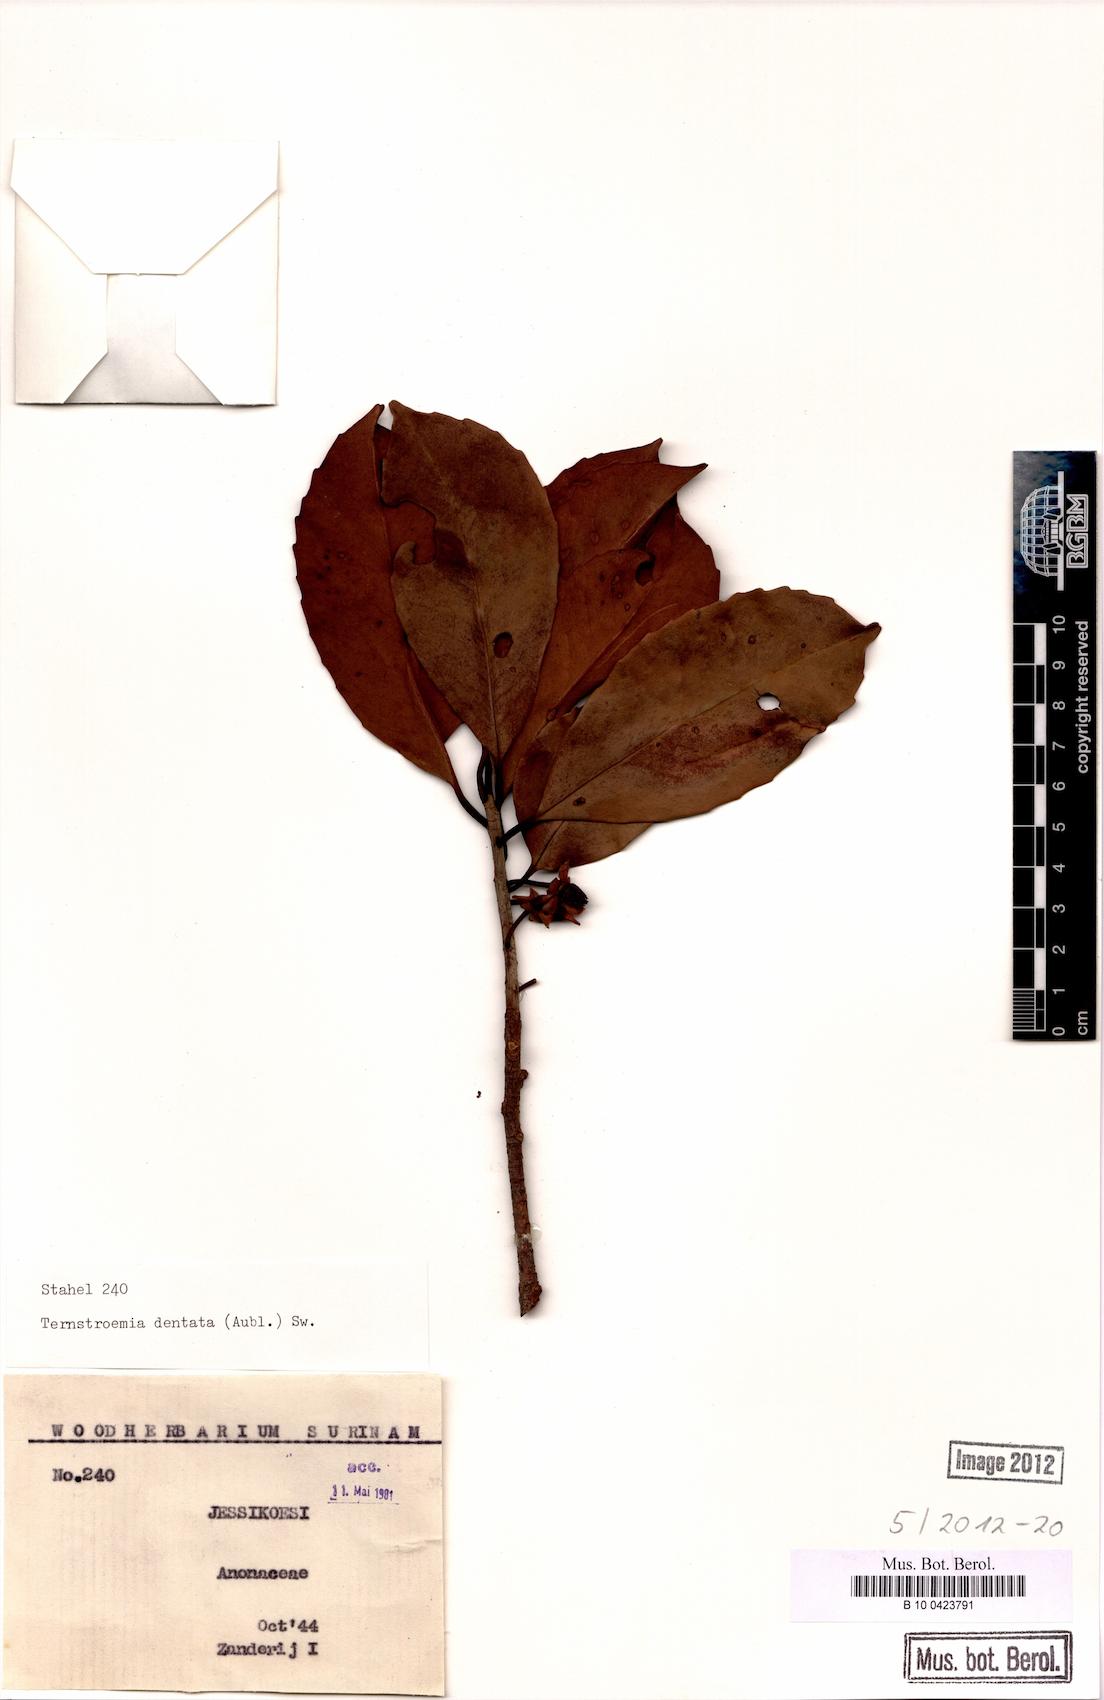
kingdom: Plantae
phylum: Tracheophyta
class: Magnoliopsida
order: Ericales
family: Pentaphylacaceae
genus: Ternstroemia
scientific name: Ternstroemia dentata
